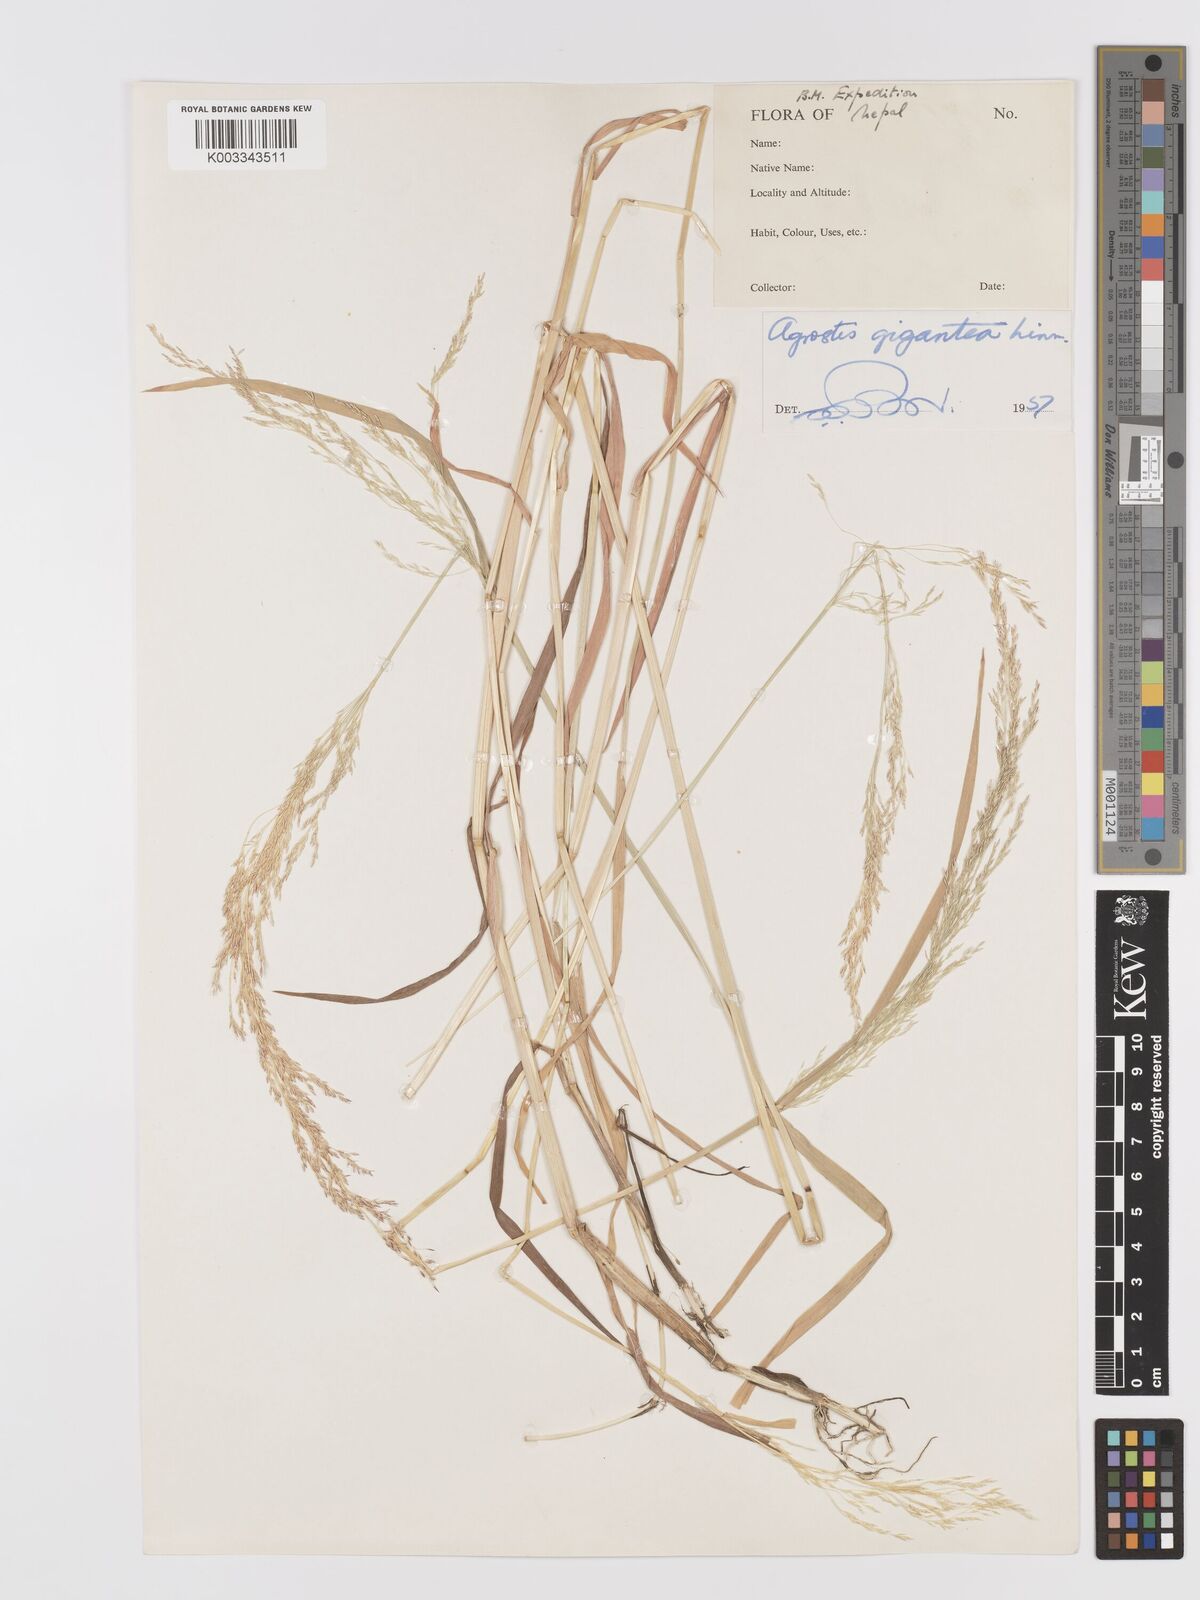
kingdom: Plantae
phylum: Tracheophyta
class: Liliopsida
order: Poales
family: Poaceae
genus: Agrostis
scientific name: Agrostis gigantea
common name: Black bent
